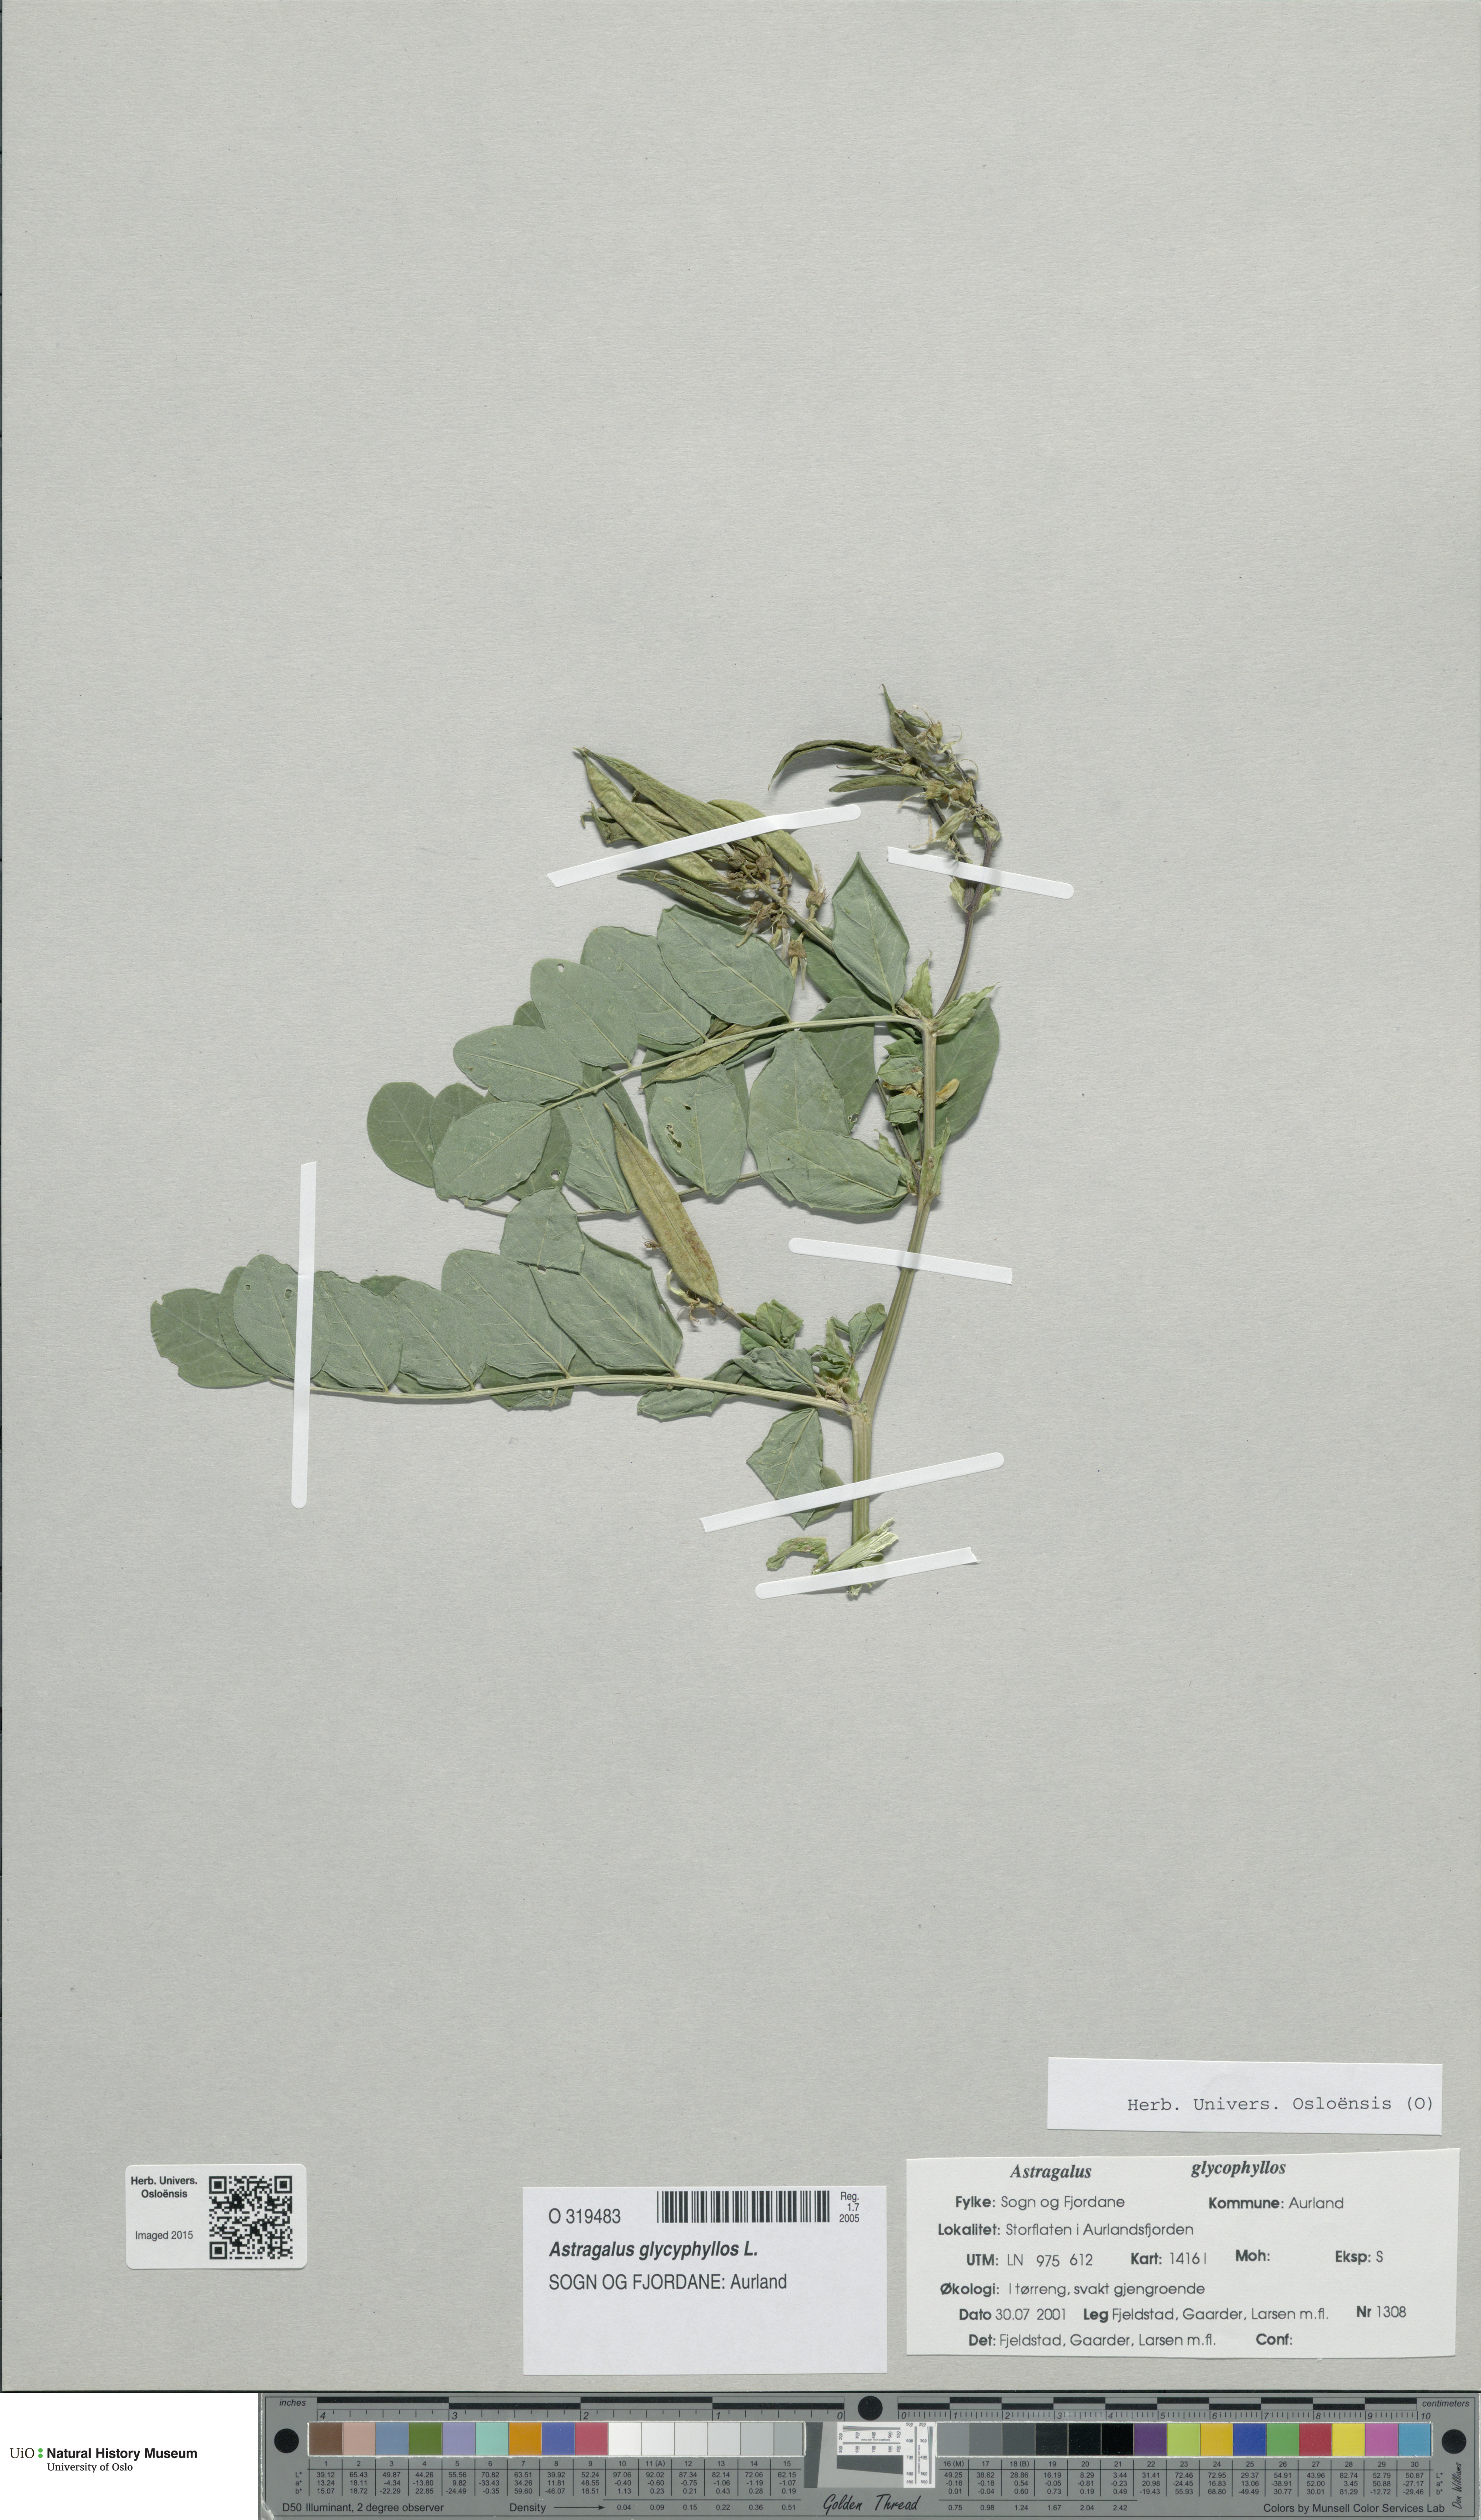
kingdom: Plantae
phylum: Tracheophyta
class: Magnoliopsida
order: Fabales
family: Fabaceae
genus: Astragalus
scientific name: Astragalus glycyphyllos
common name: Wild liquorice
